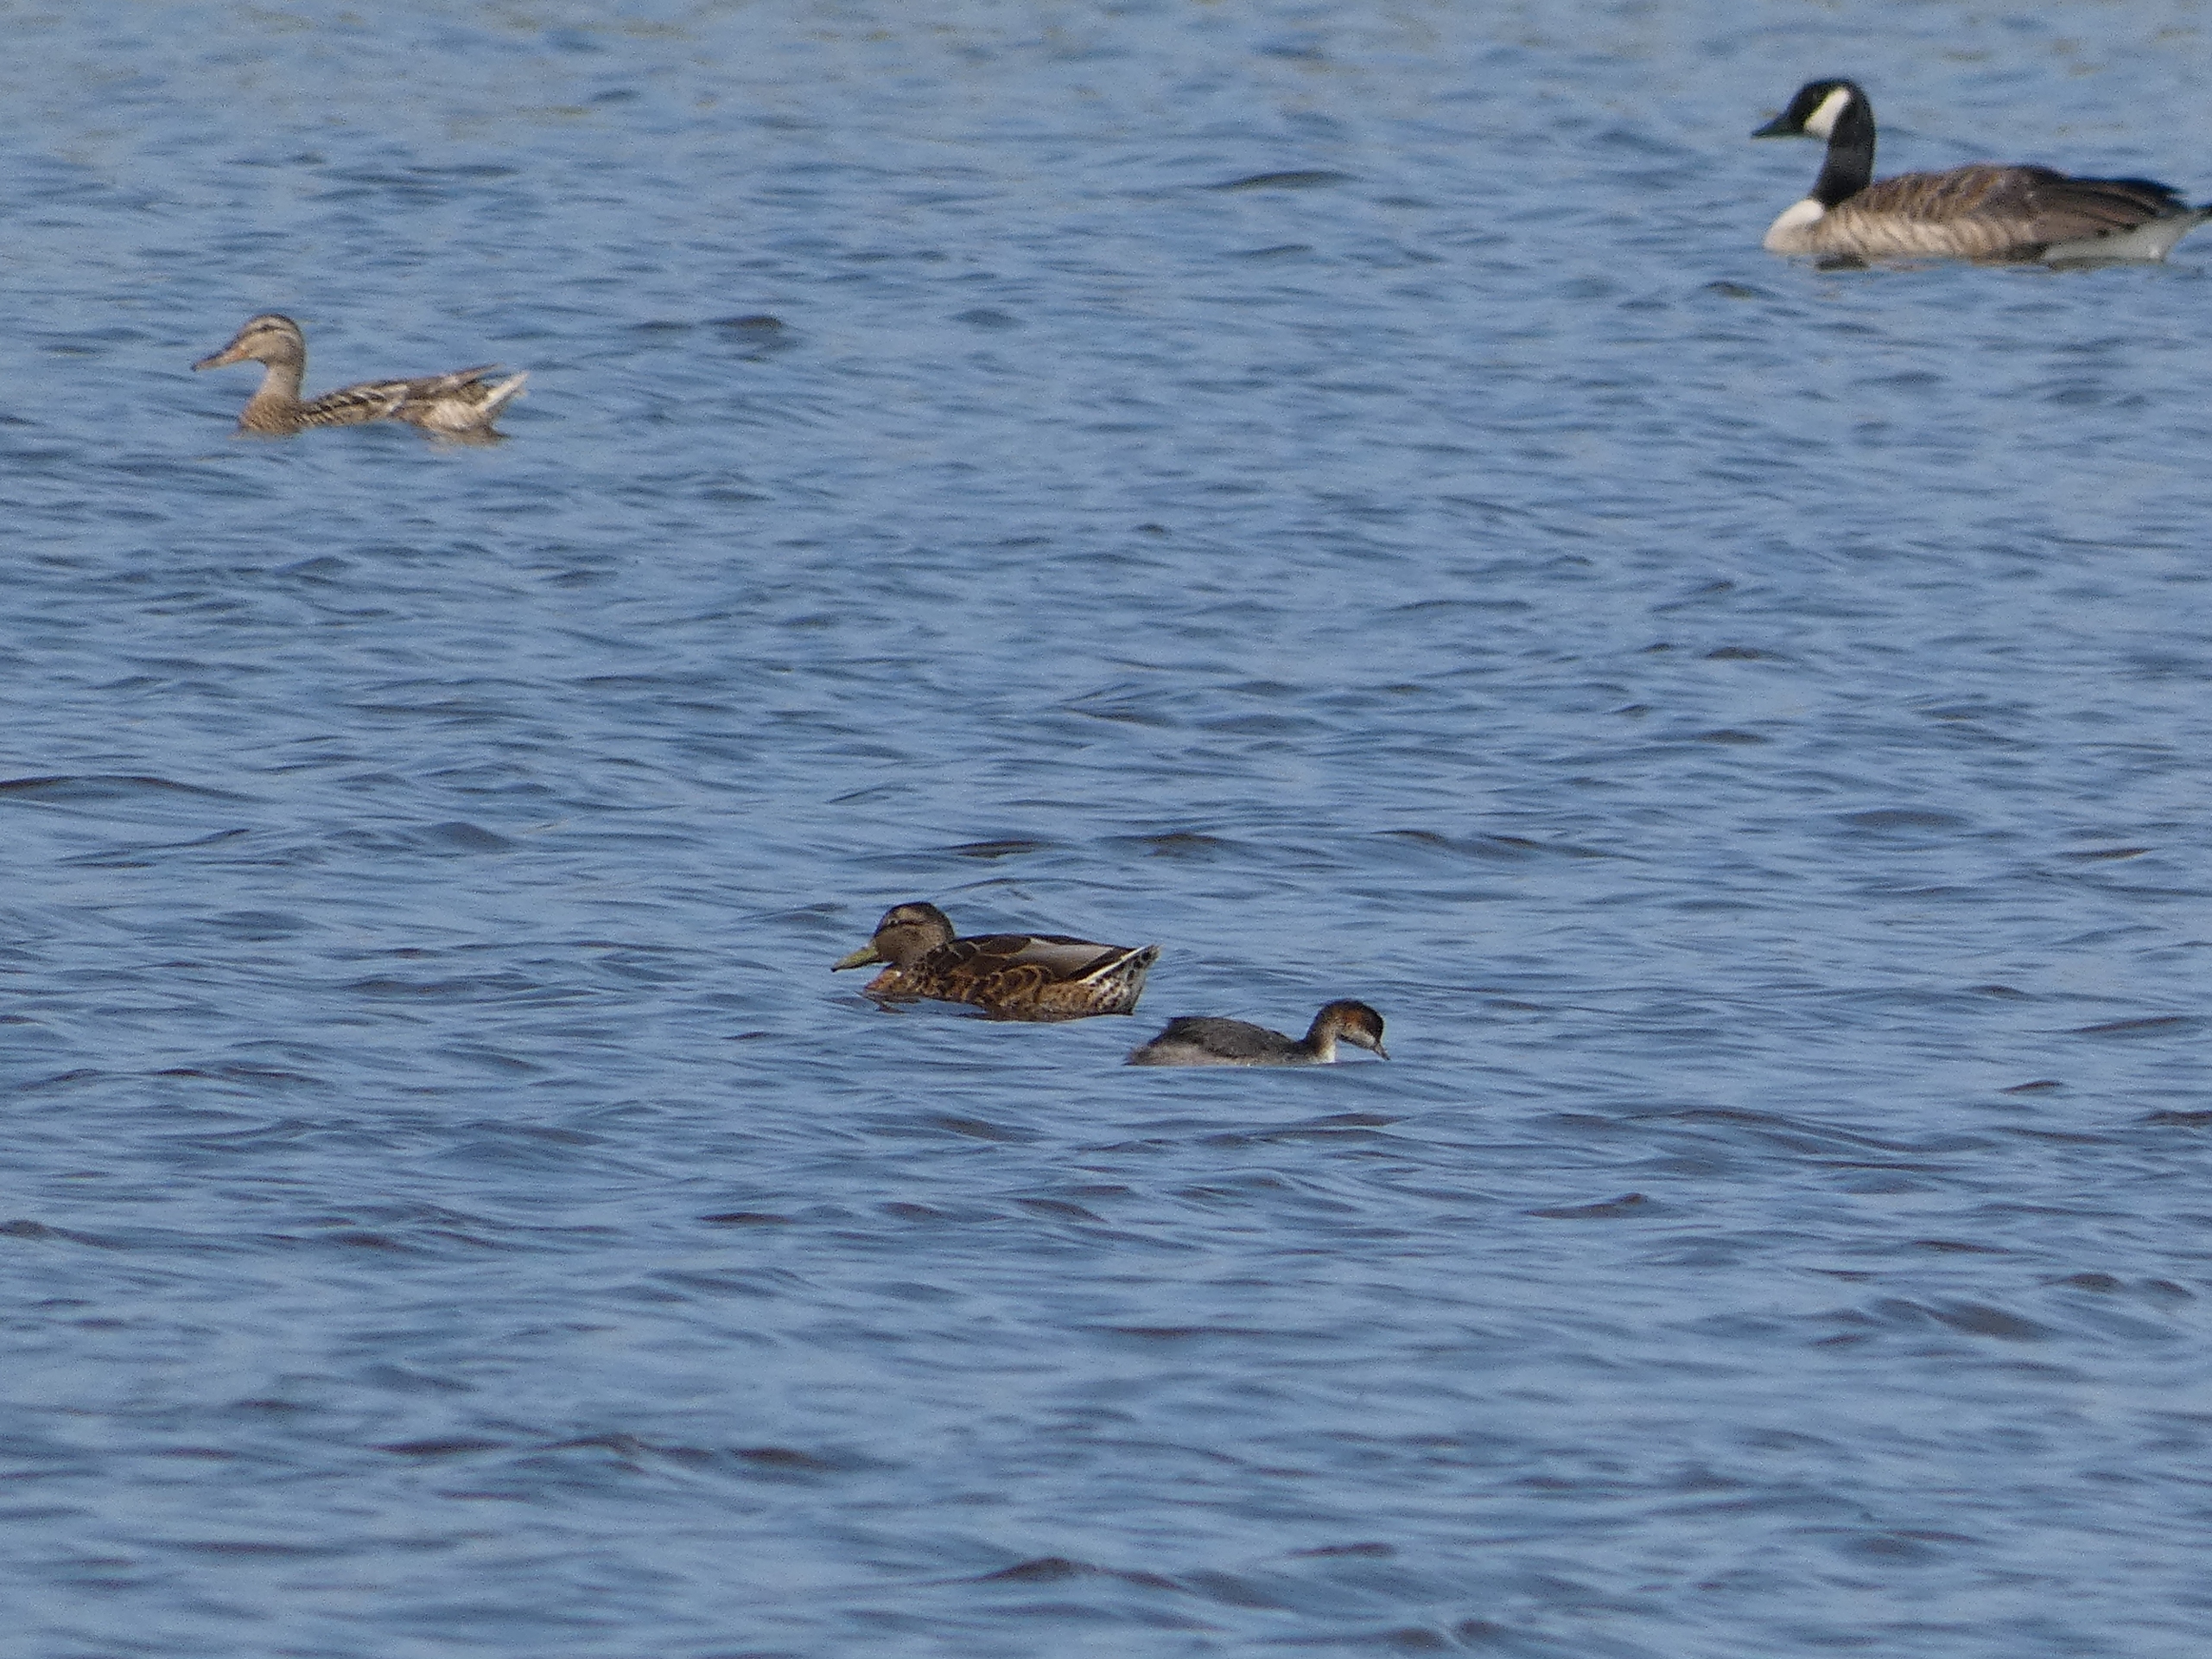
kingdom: Animalia
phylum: Chordata
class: Aves
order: Podicipediformes
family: Podicipedidae
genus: Podiceps
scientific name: Podiceps nigricollis
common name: Sorthalset lappedykker
